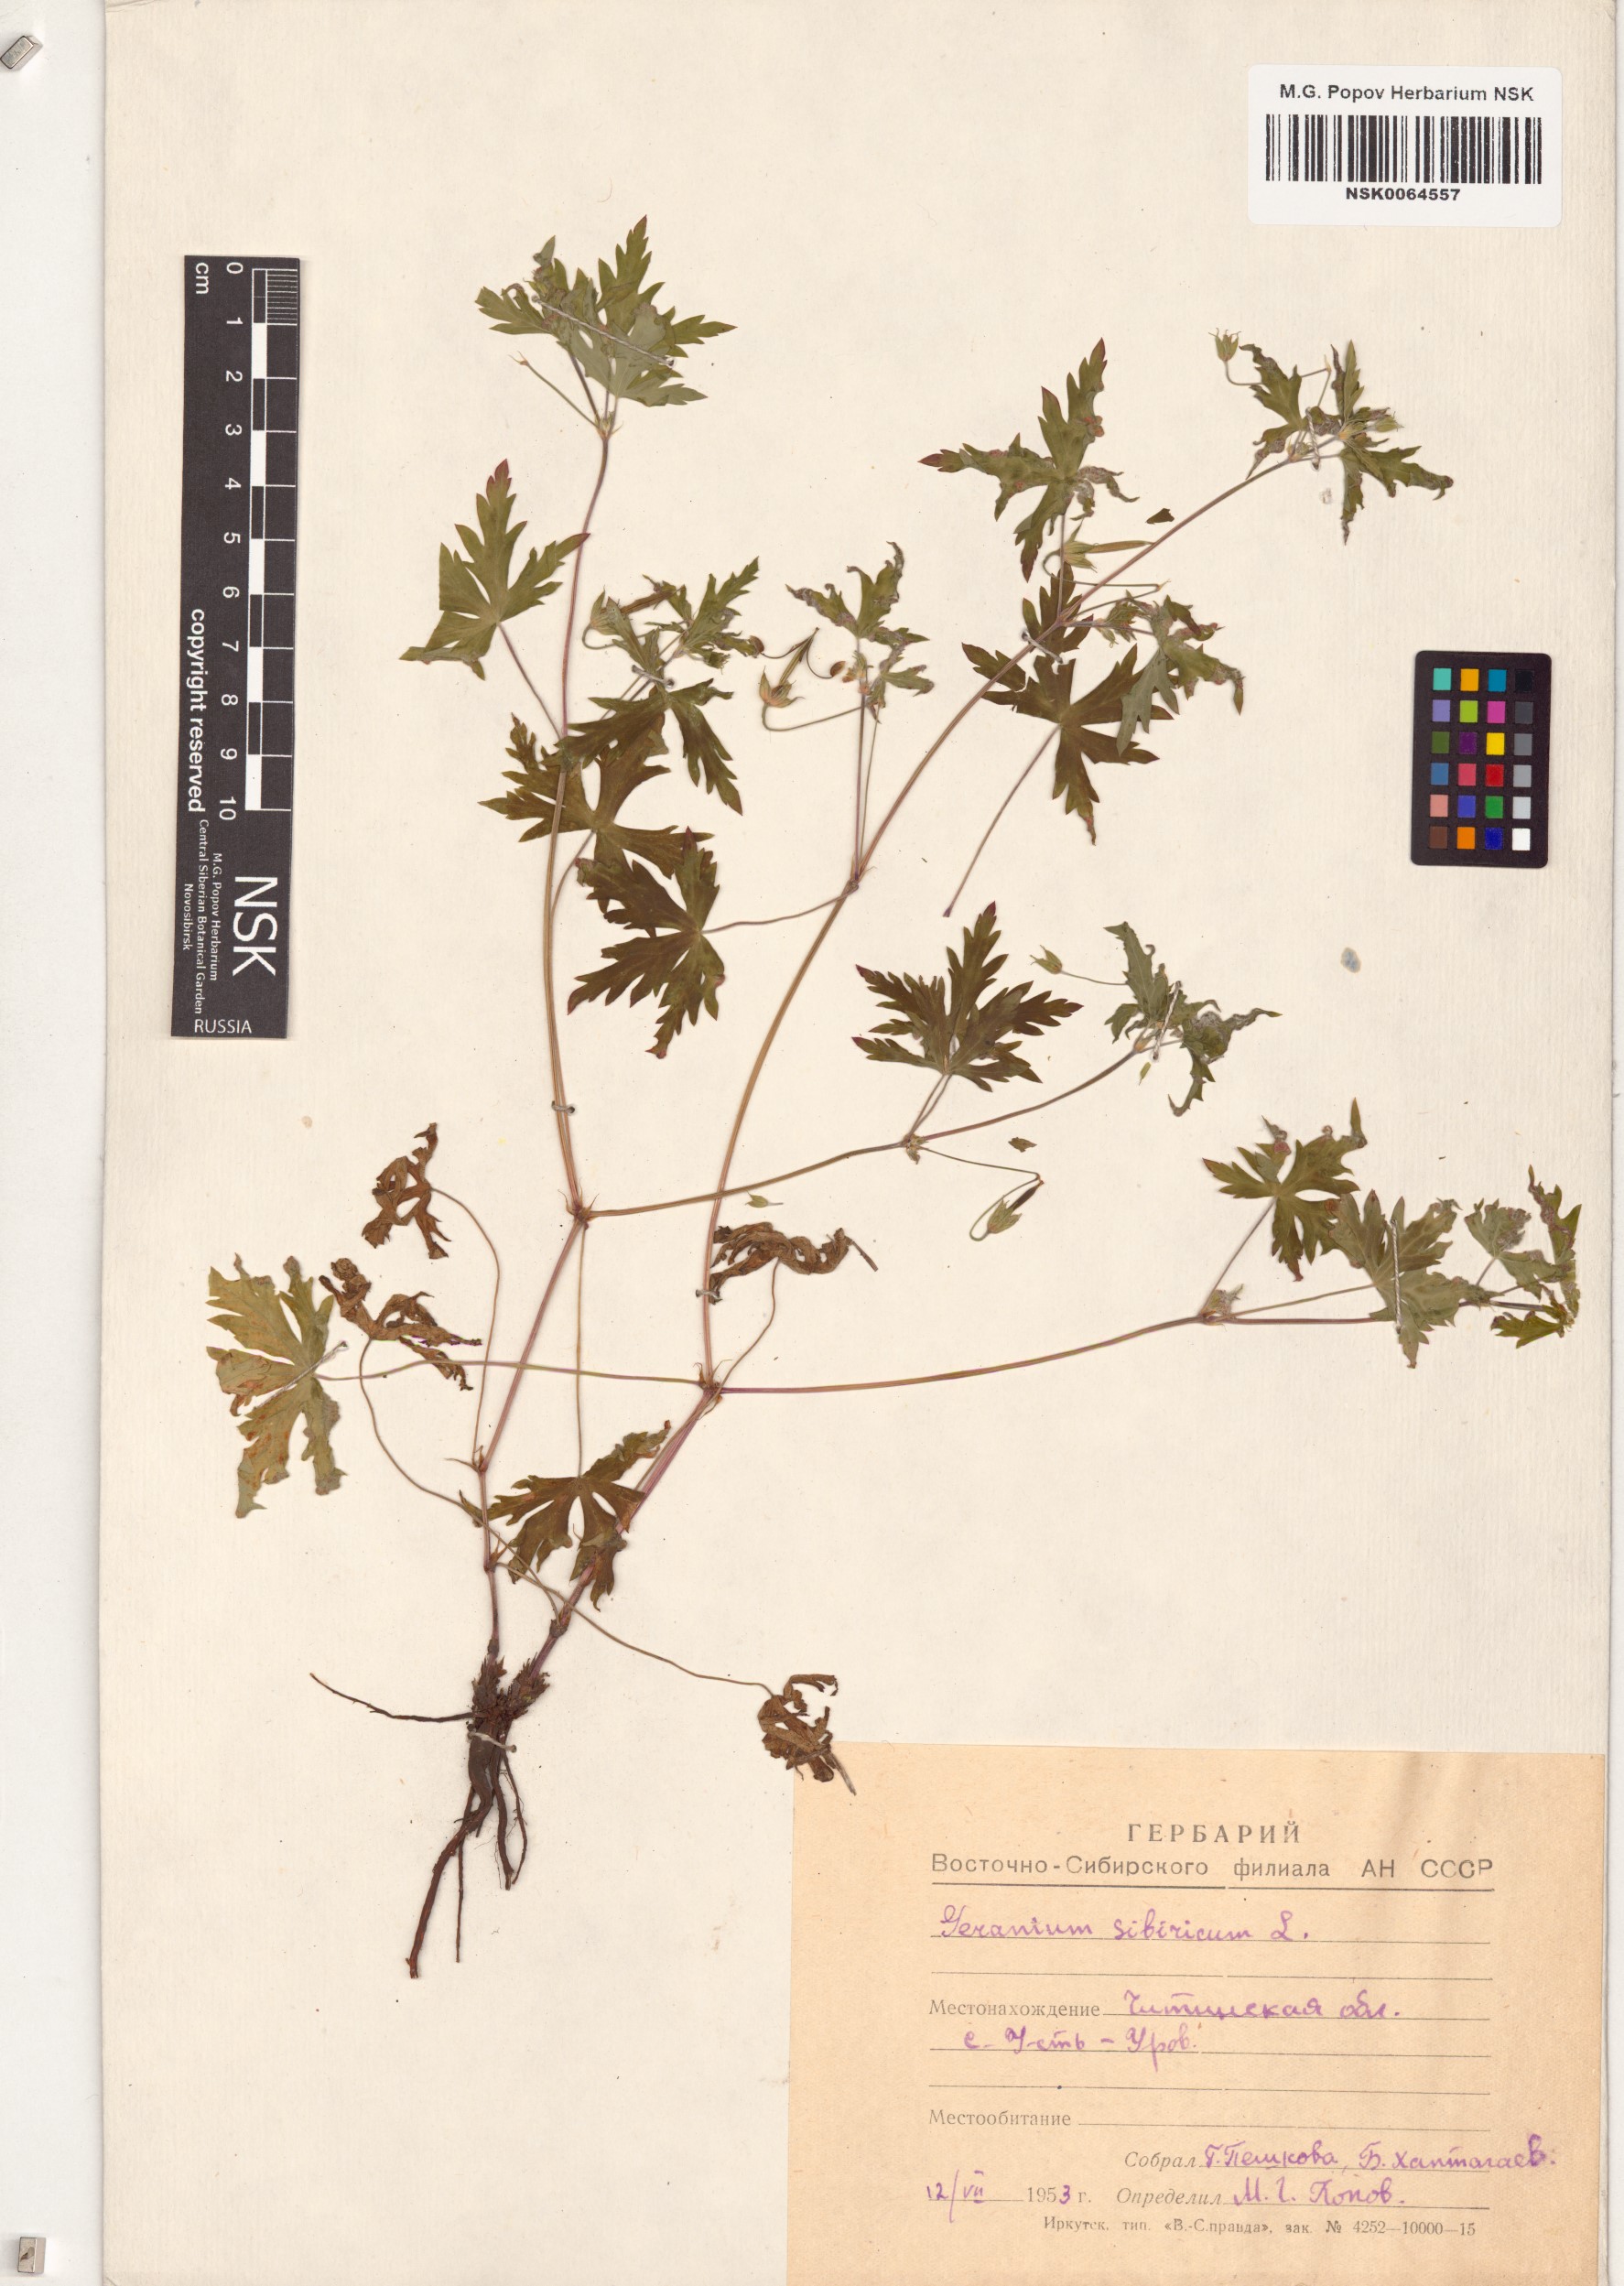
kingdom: Plantae
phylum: Tracheophyta
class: Magnoliopsida
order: Geraniales
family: Geraniaceae
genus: Geranium
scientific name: Geranium sibiricum
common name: Siberian crane's-bill
